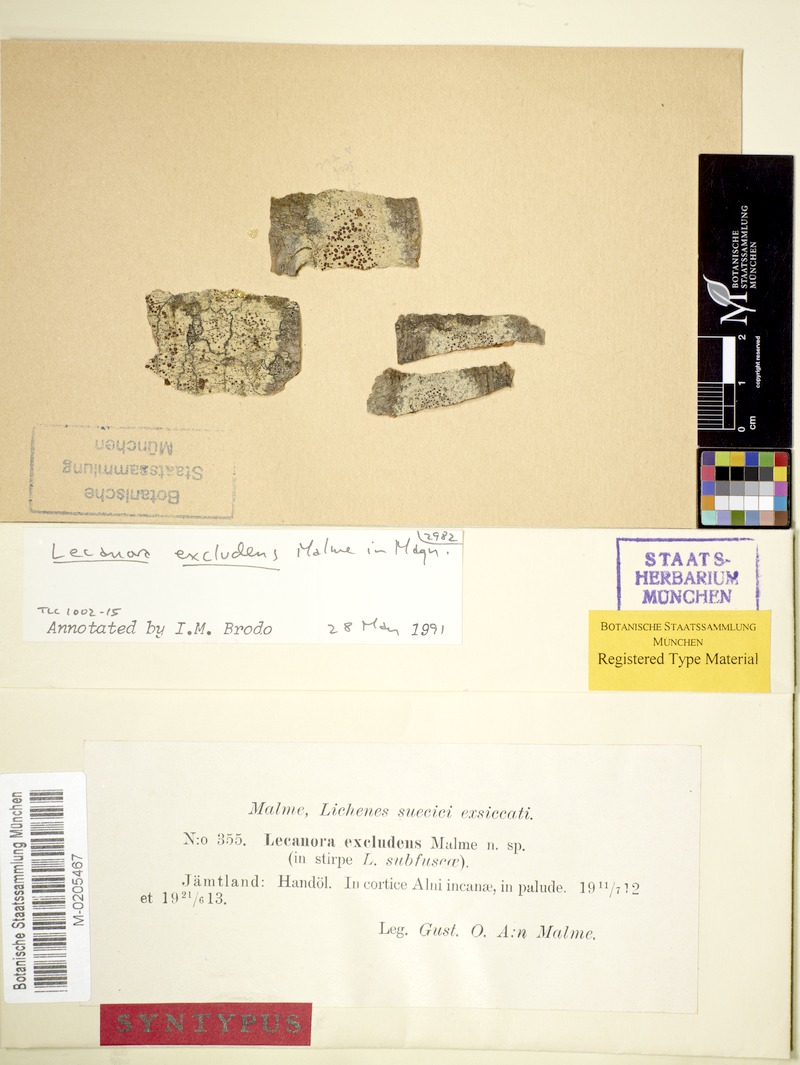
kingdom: Fungi
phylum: Ascomycota
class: Lecanoromycetes
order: Lecanorales
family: Lecanoraceae
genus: Lecanora
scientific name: Lecanora septentrionalis
